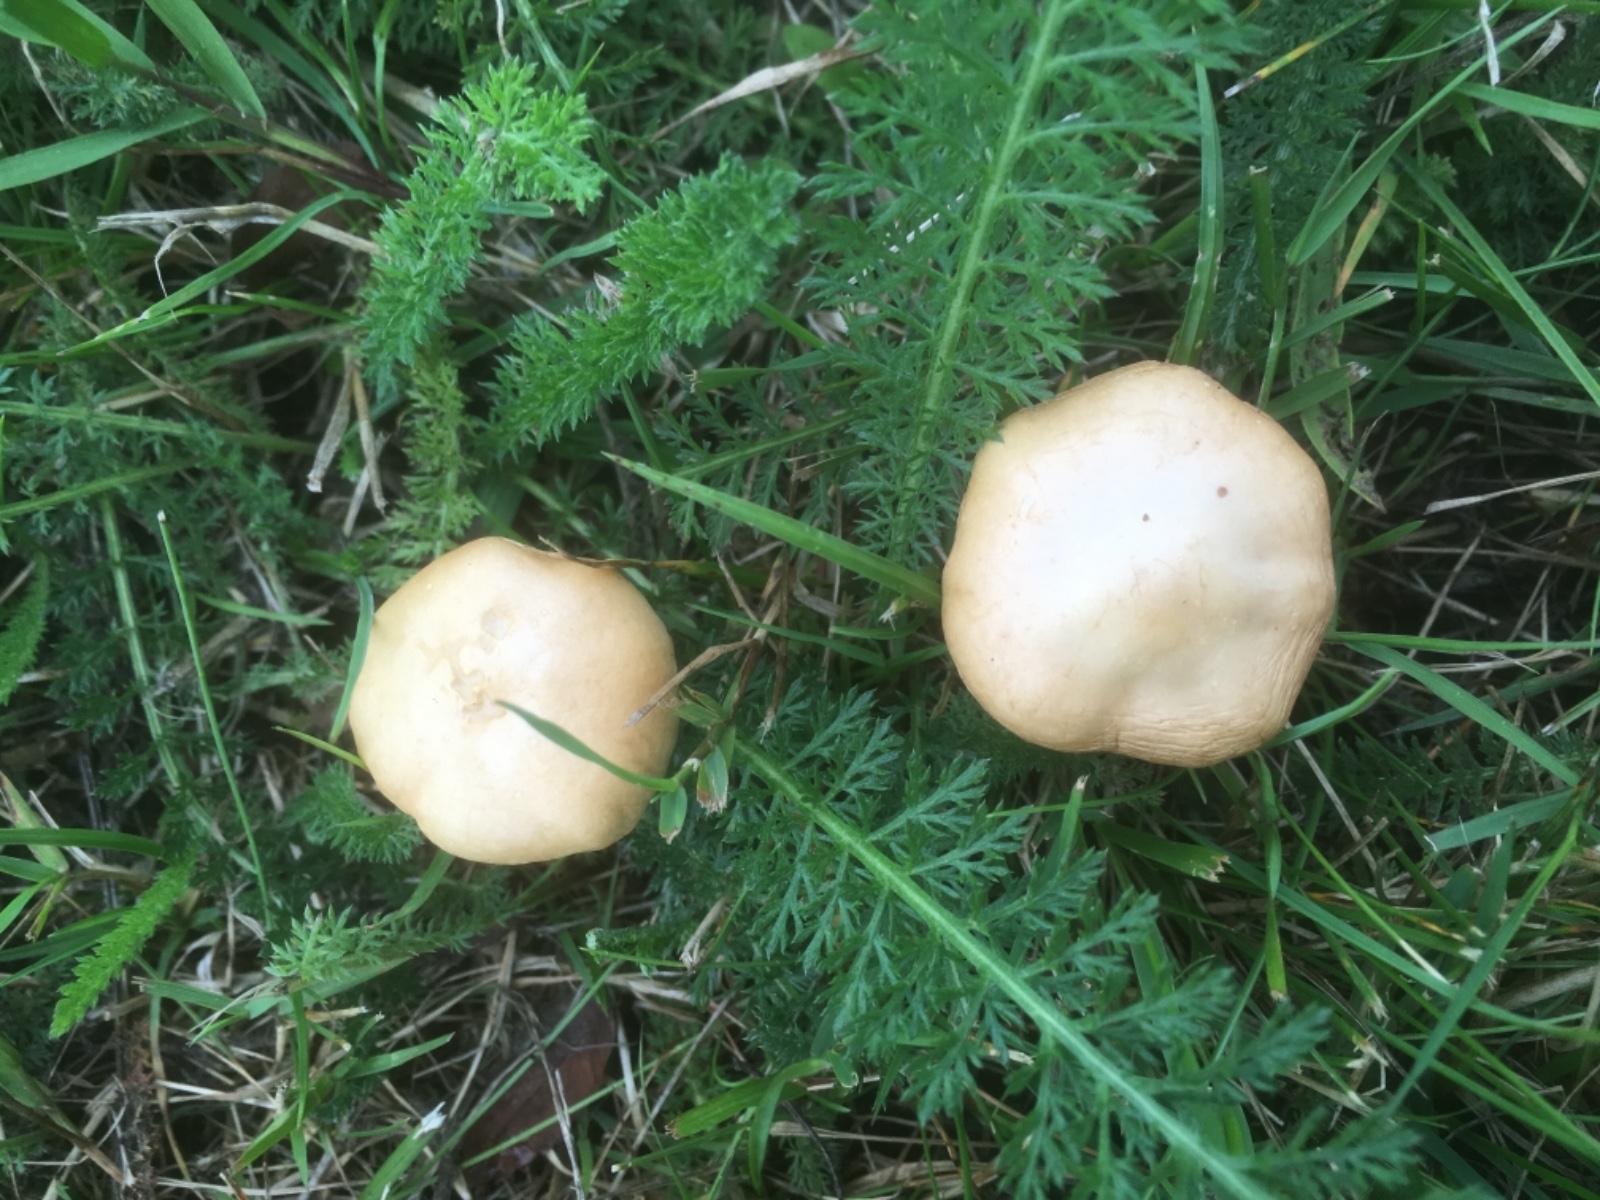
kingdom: Fungi
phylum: Basidiomycota
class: Agaricomycetes
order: Agaricales
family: Strophariaceae
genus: Agrocybe
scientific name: Agrocybe pediades
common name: almindelig agerhat
